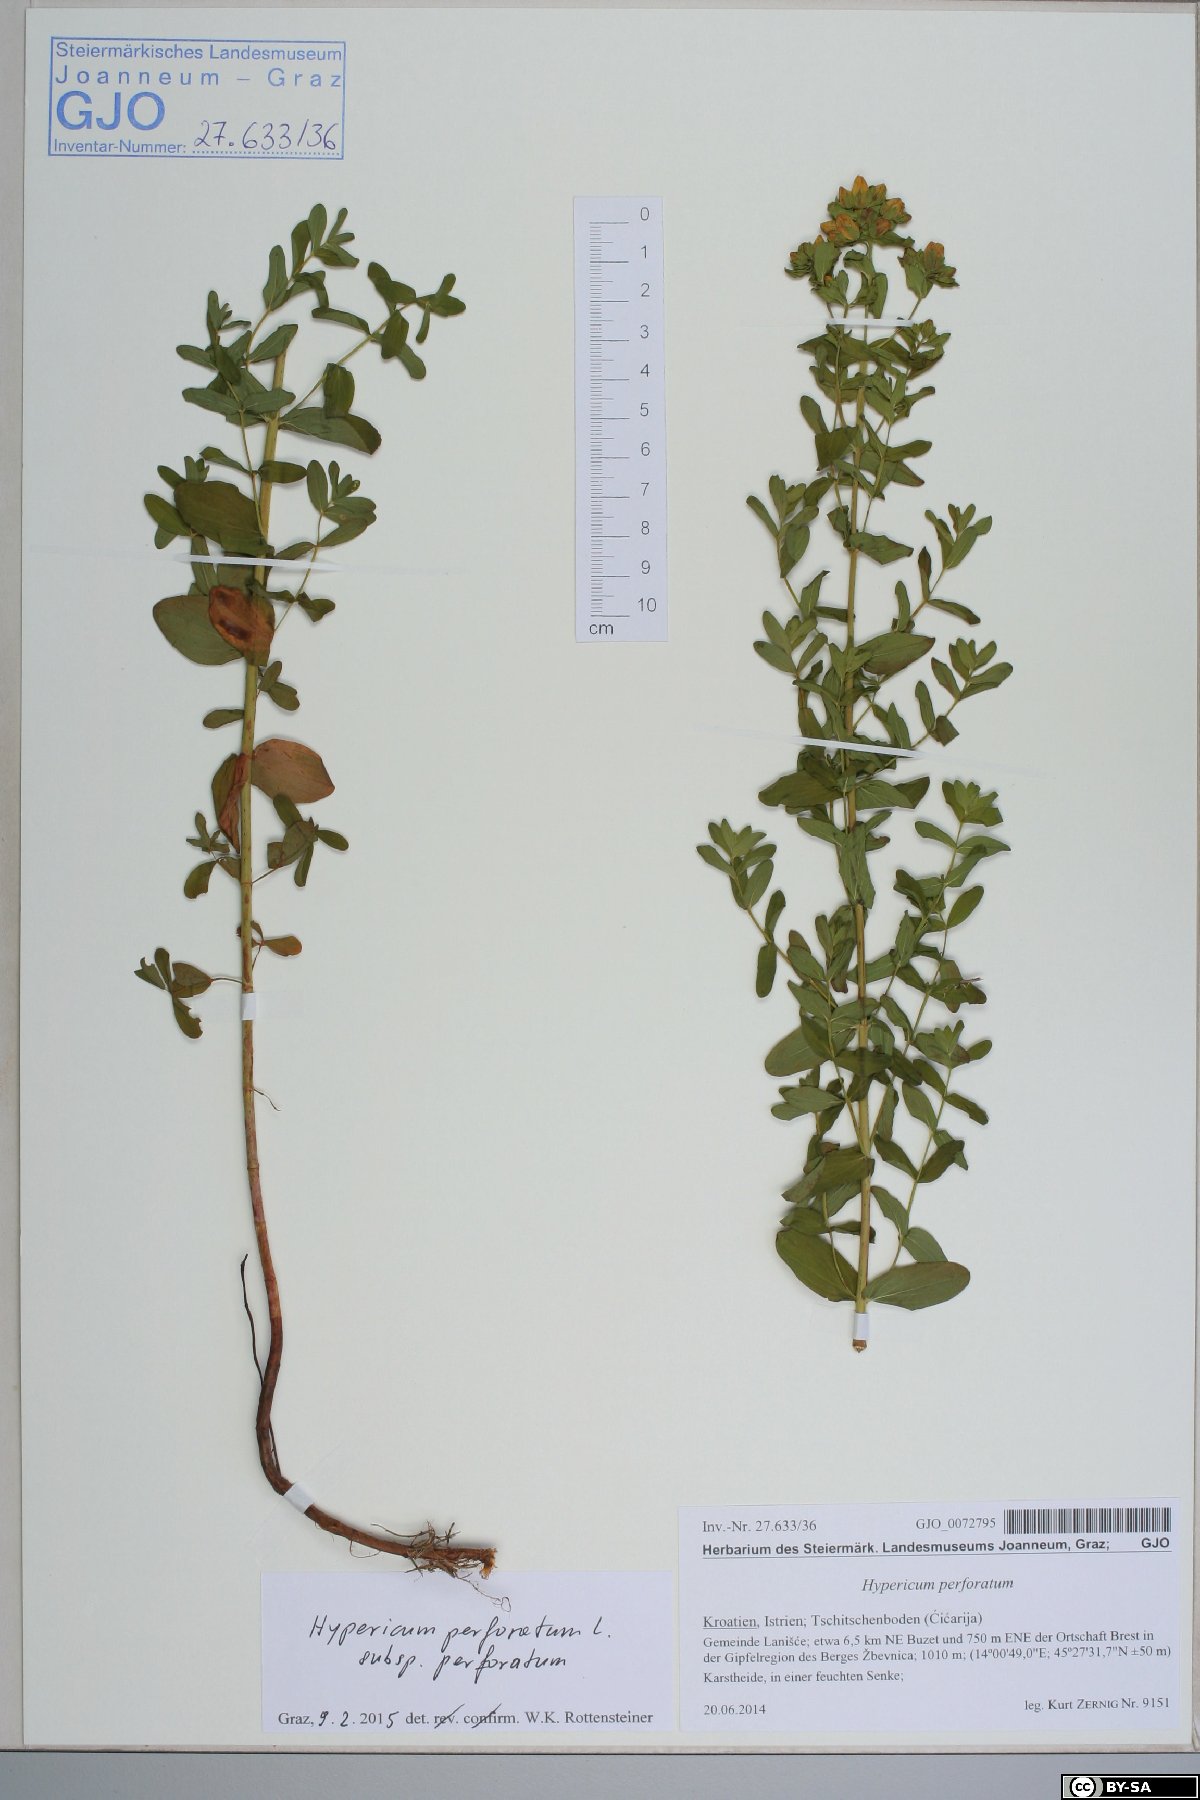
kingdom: Plantae
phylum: Tracheophyta
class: Magnoliopsida
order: Malpighiales
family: Hypericaceae
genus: Hypericum
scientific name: Hypericum perforatum
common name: Common st. johnswort
